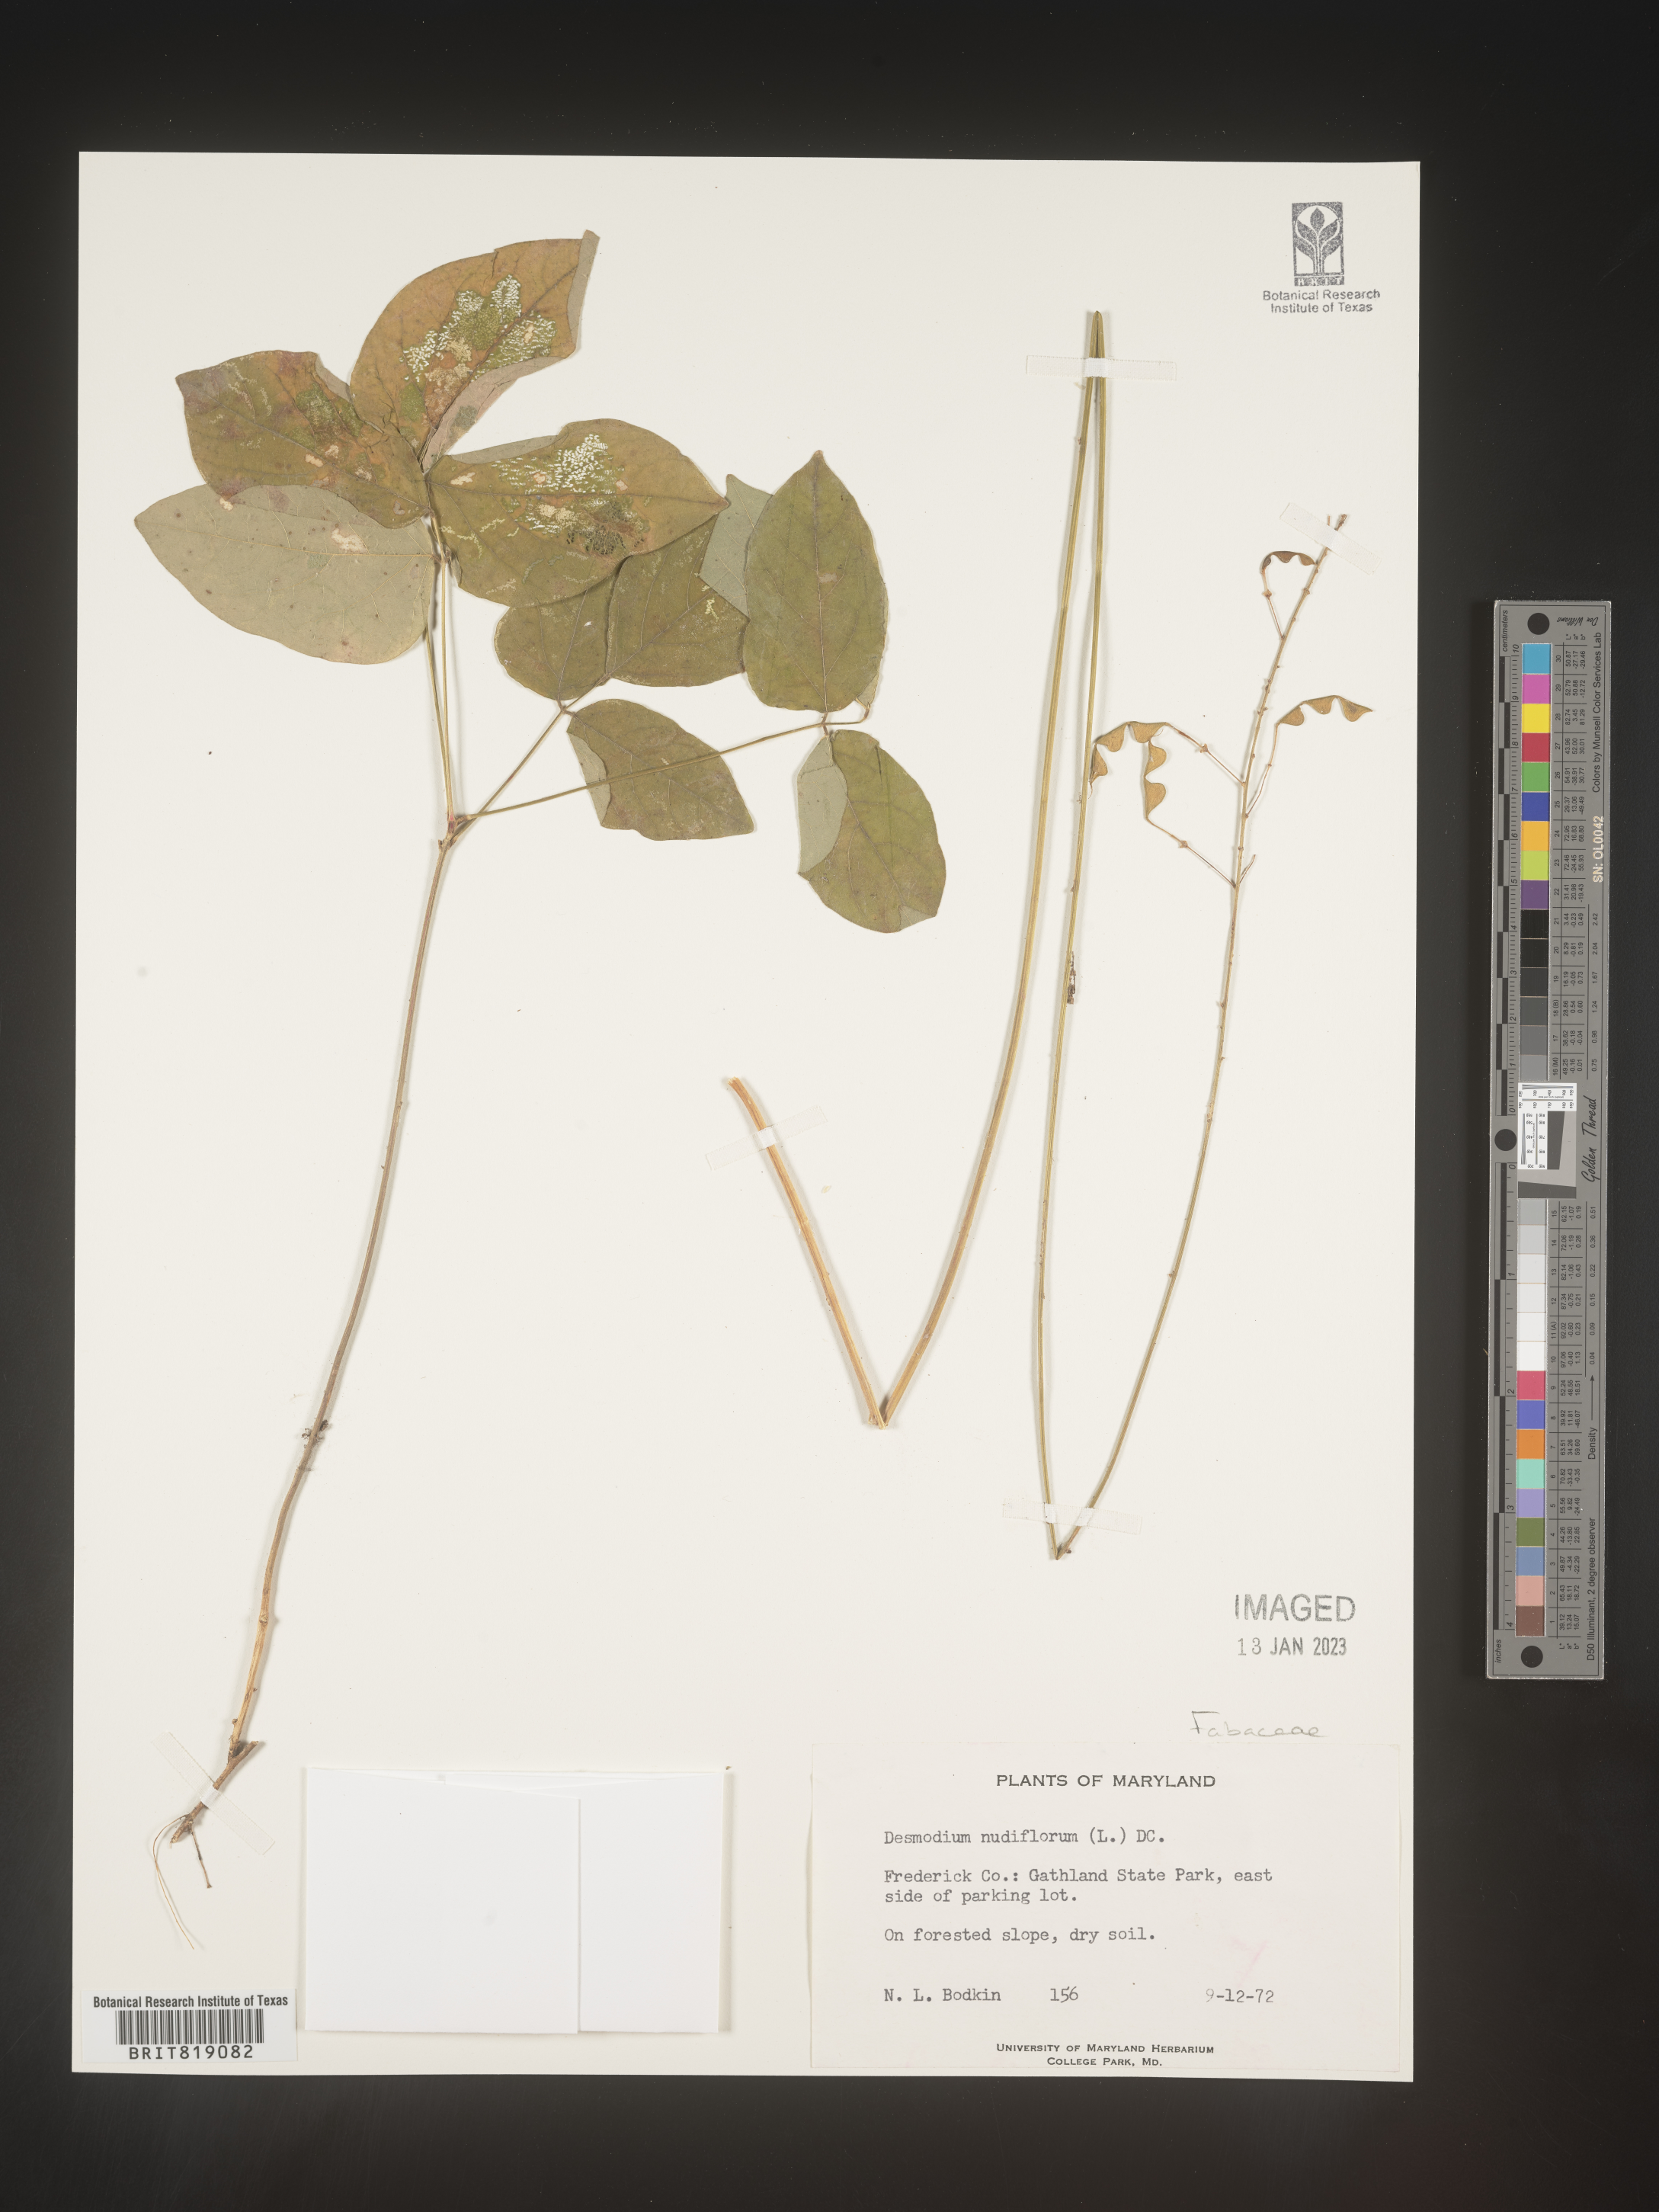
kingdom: Plantae
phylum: Tracheophyta
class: Magnoliopsida
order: Fabales
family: Fabaceae
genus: Hylodesmum
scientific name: Hylodesmum nudiflorum
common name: Bare-stemmed tick-trefoil
